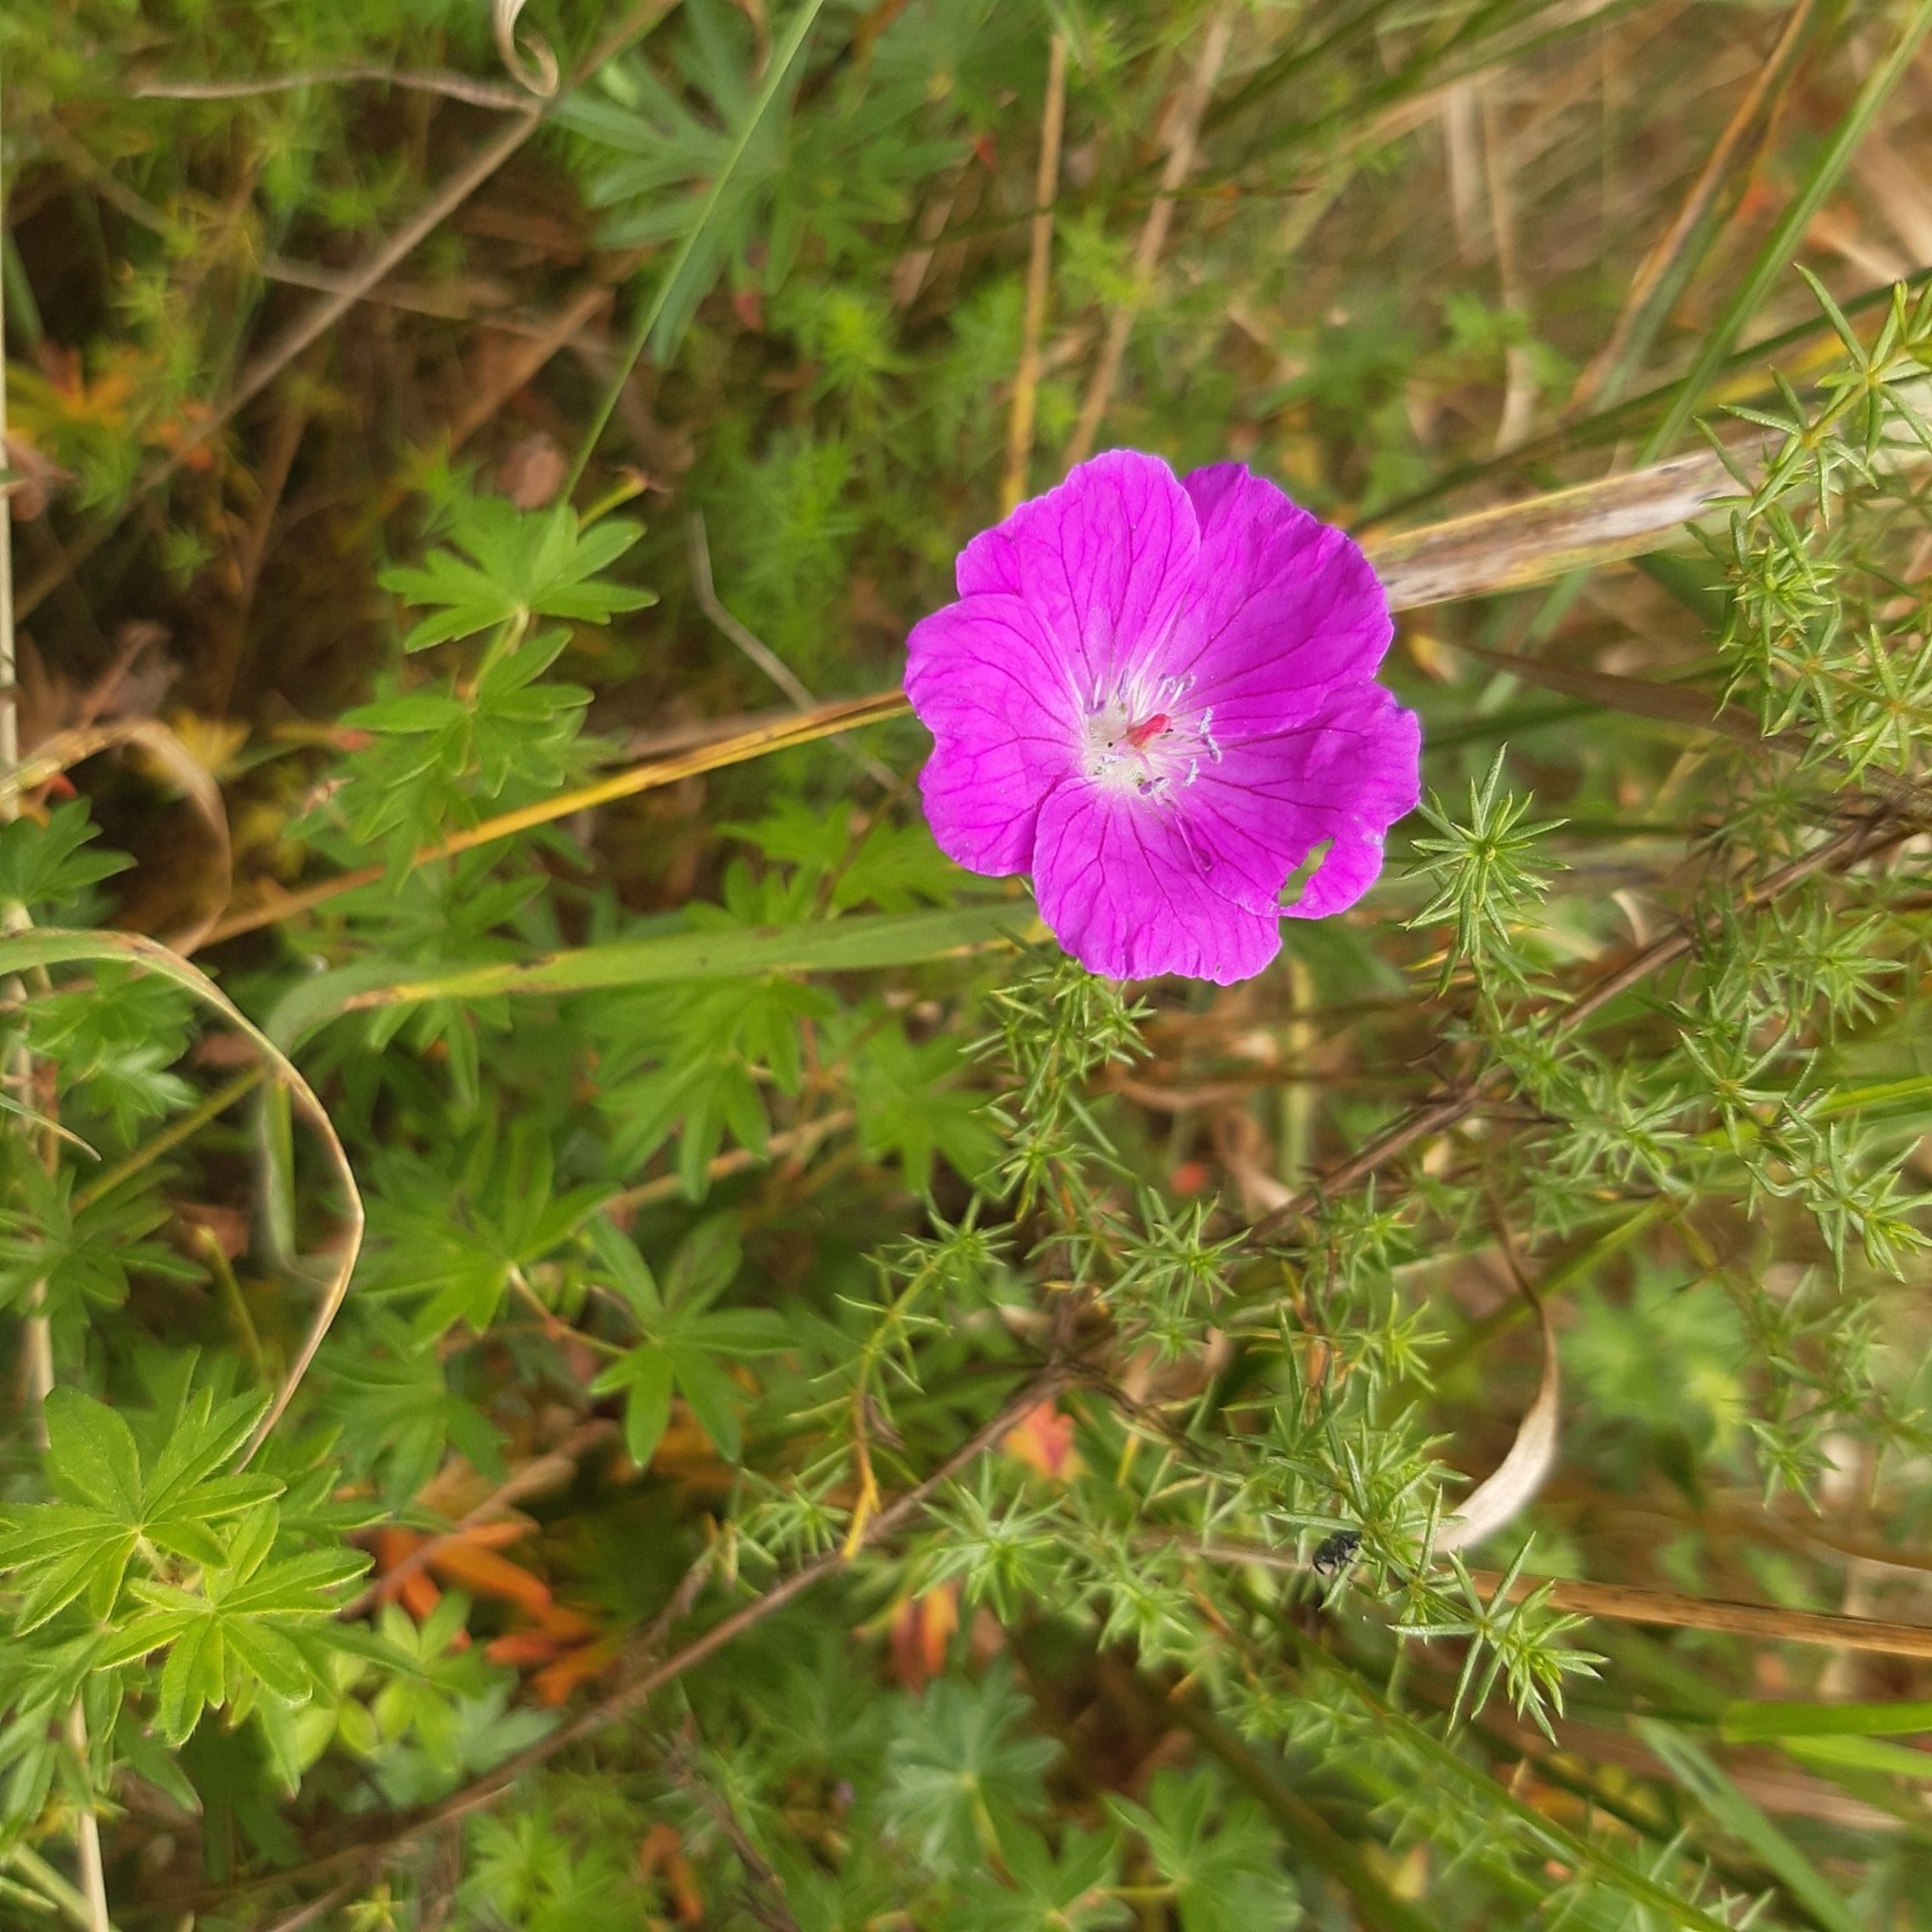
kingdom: Plantae
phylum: Tracheophyta
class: Magnoliopsida
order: Geraniales
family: Geraniaceae
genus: Geranium
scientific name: Geranium sanguineum
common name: Blodrød storkenæb
